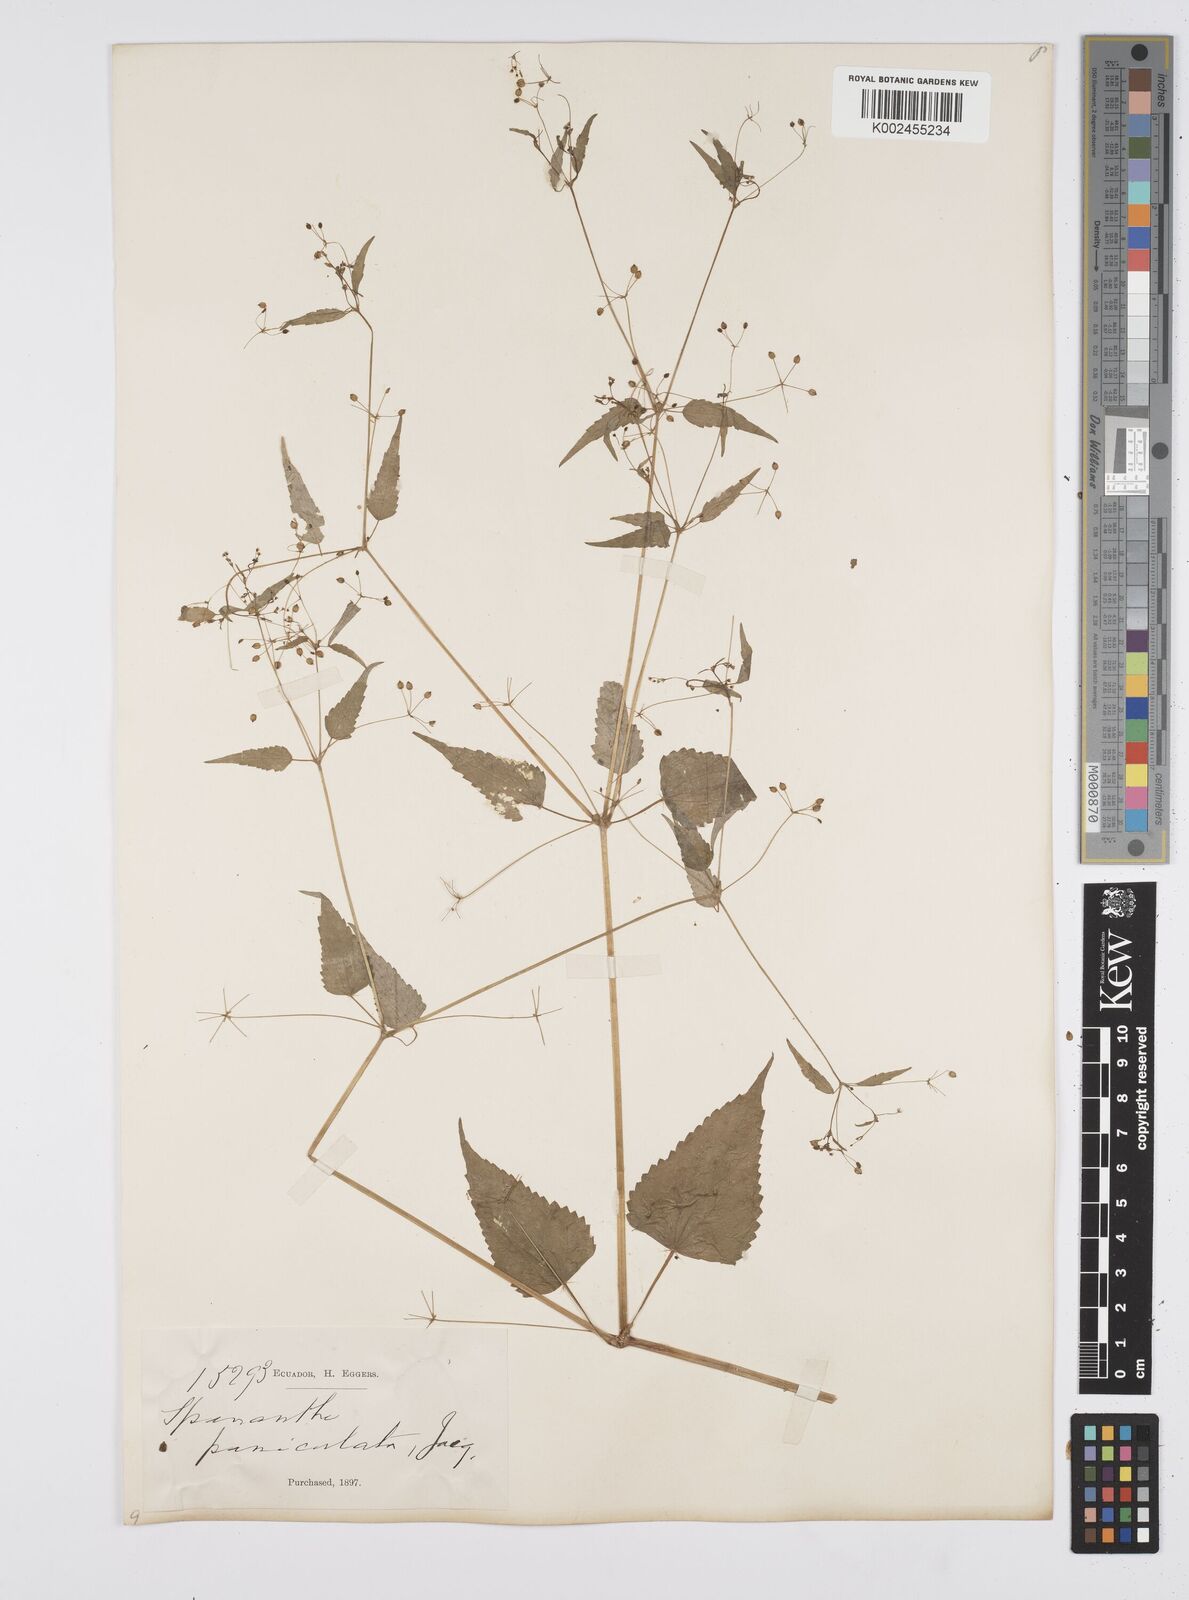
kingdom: Plantae
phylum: Tracheophyta
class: Magnoliopsida
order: Apiales
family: Apiaceae
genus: Azorella
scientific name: Azorella
